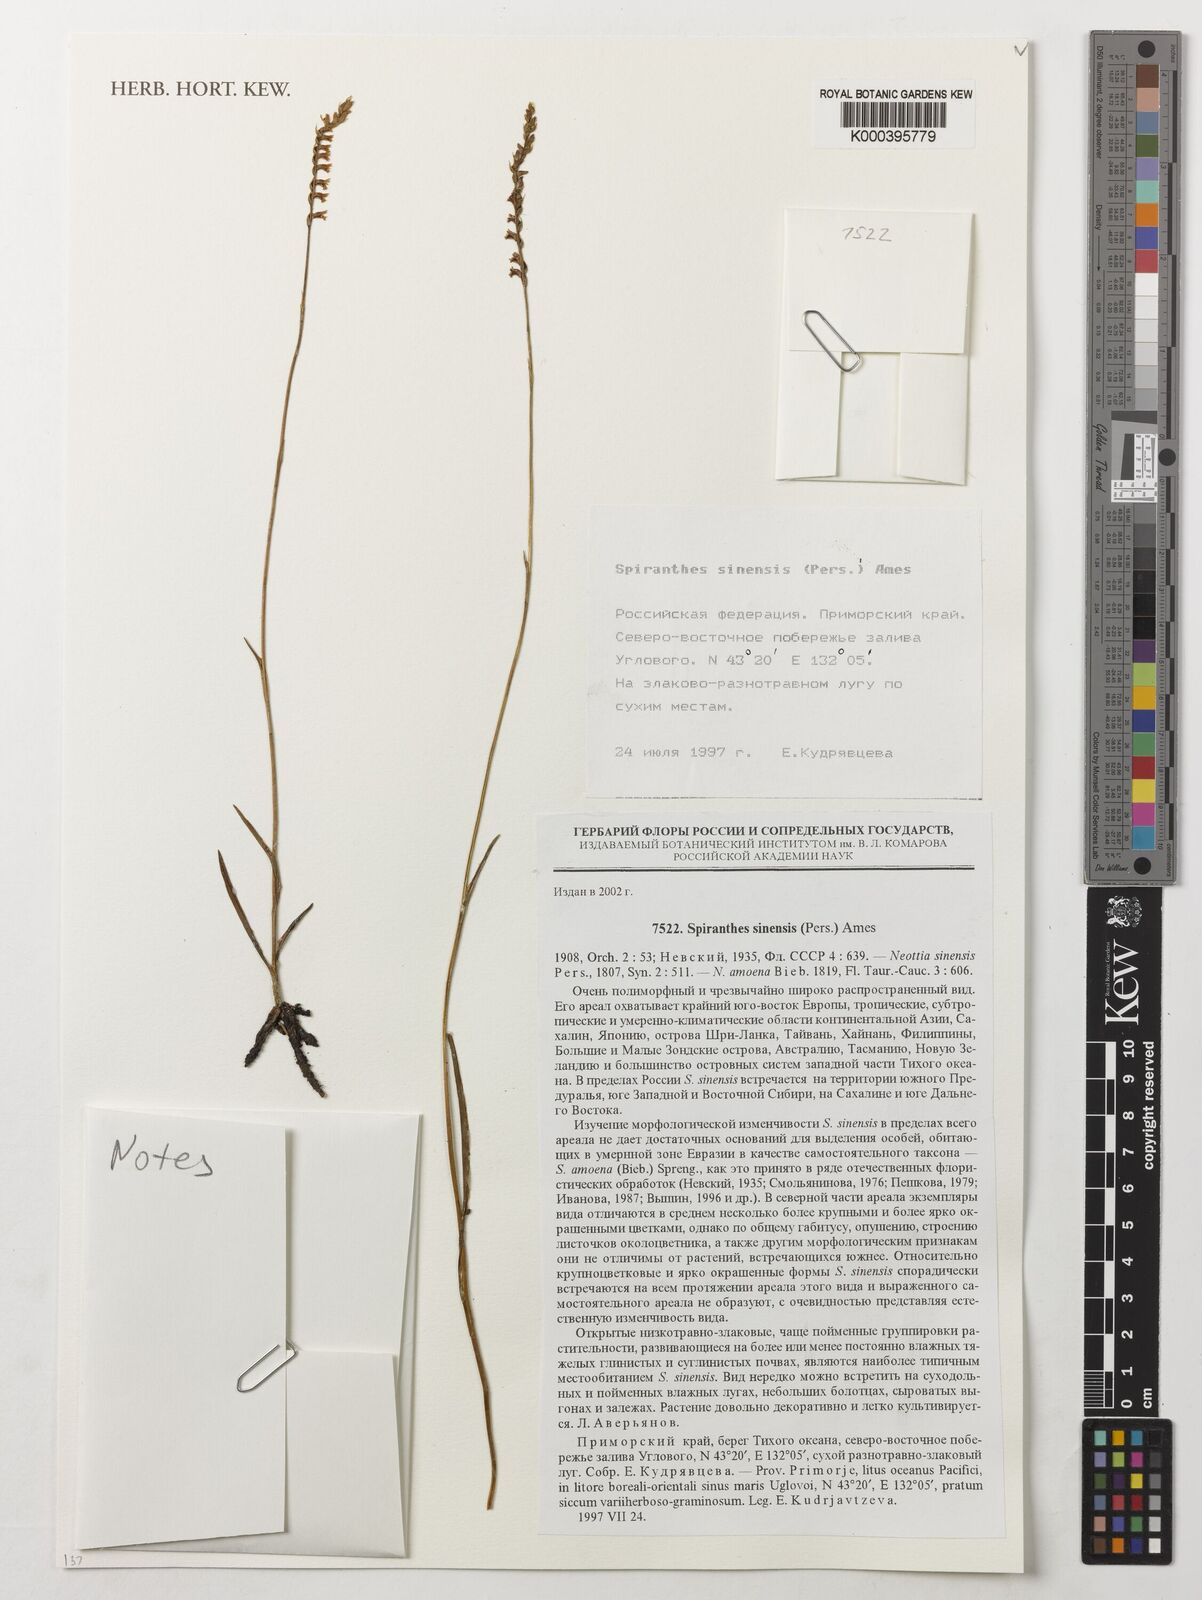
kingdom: Plantae
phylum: Tracheophyta
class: Liliopsida
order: Asparagales
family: Orchidaceae
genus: Spiranthes
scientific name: Spiranthes sinensis
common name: Chinese spiranthes
